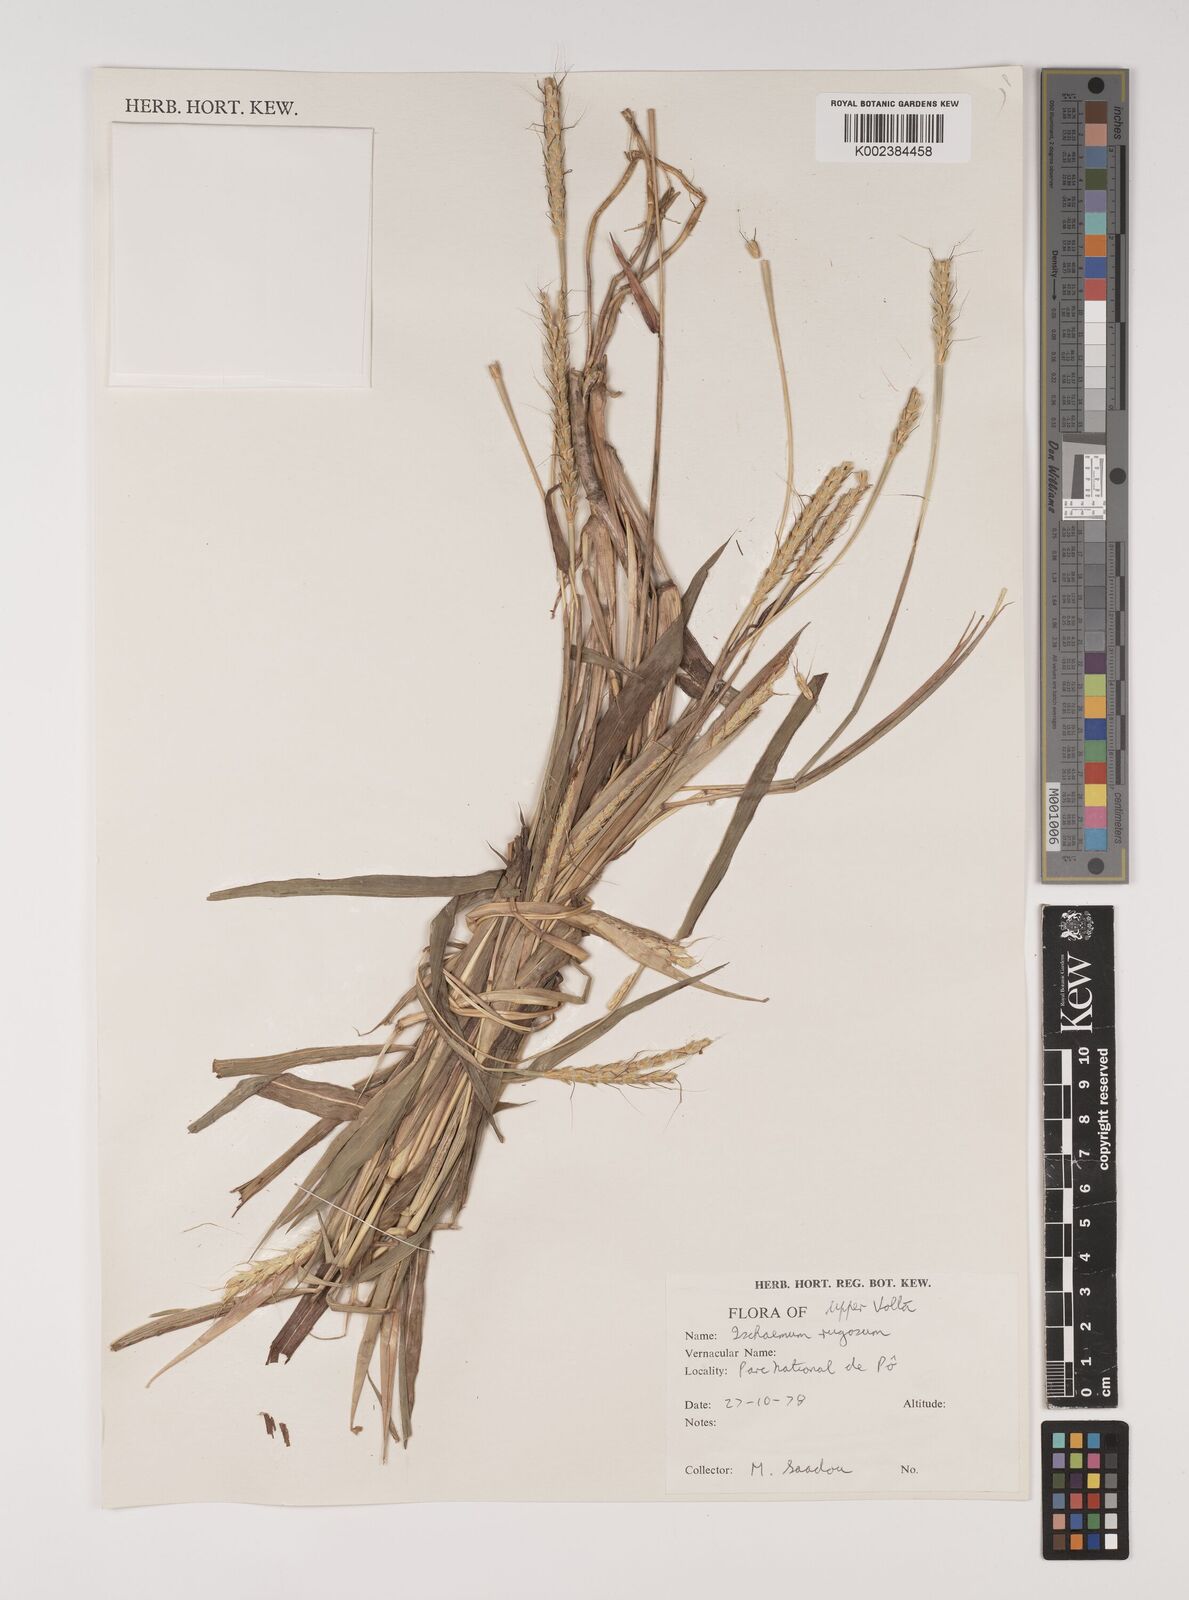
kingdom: Plantae
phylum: Tracheophyta
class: Liliopsida
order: Poales
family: Poaceae
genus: Ischaemum
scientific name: Ischaemum rugosum
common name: Saramatta grass
